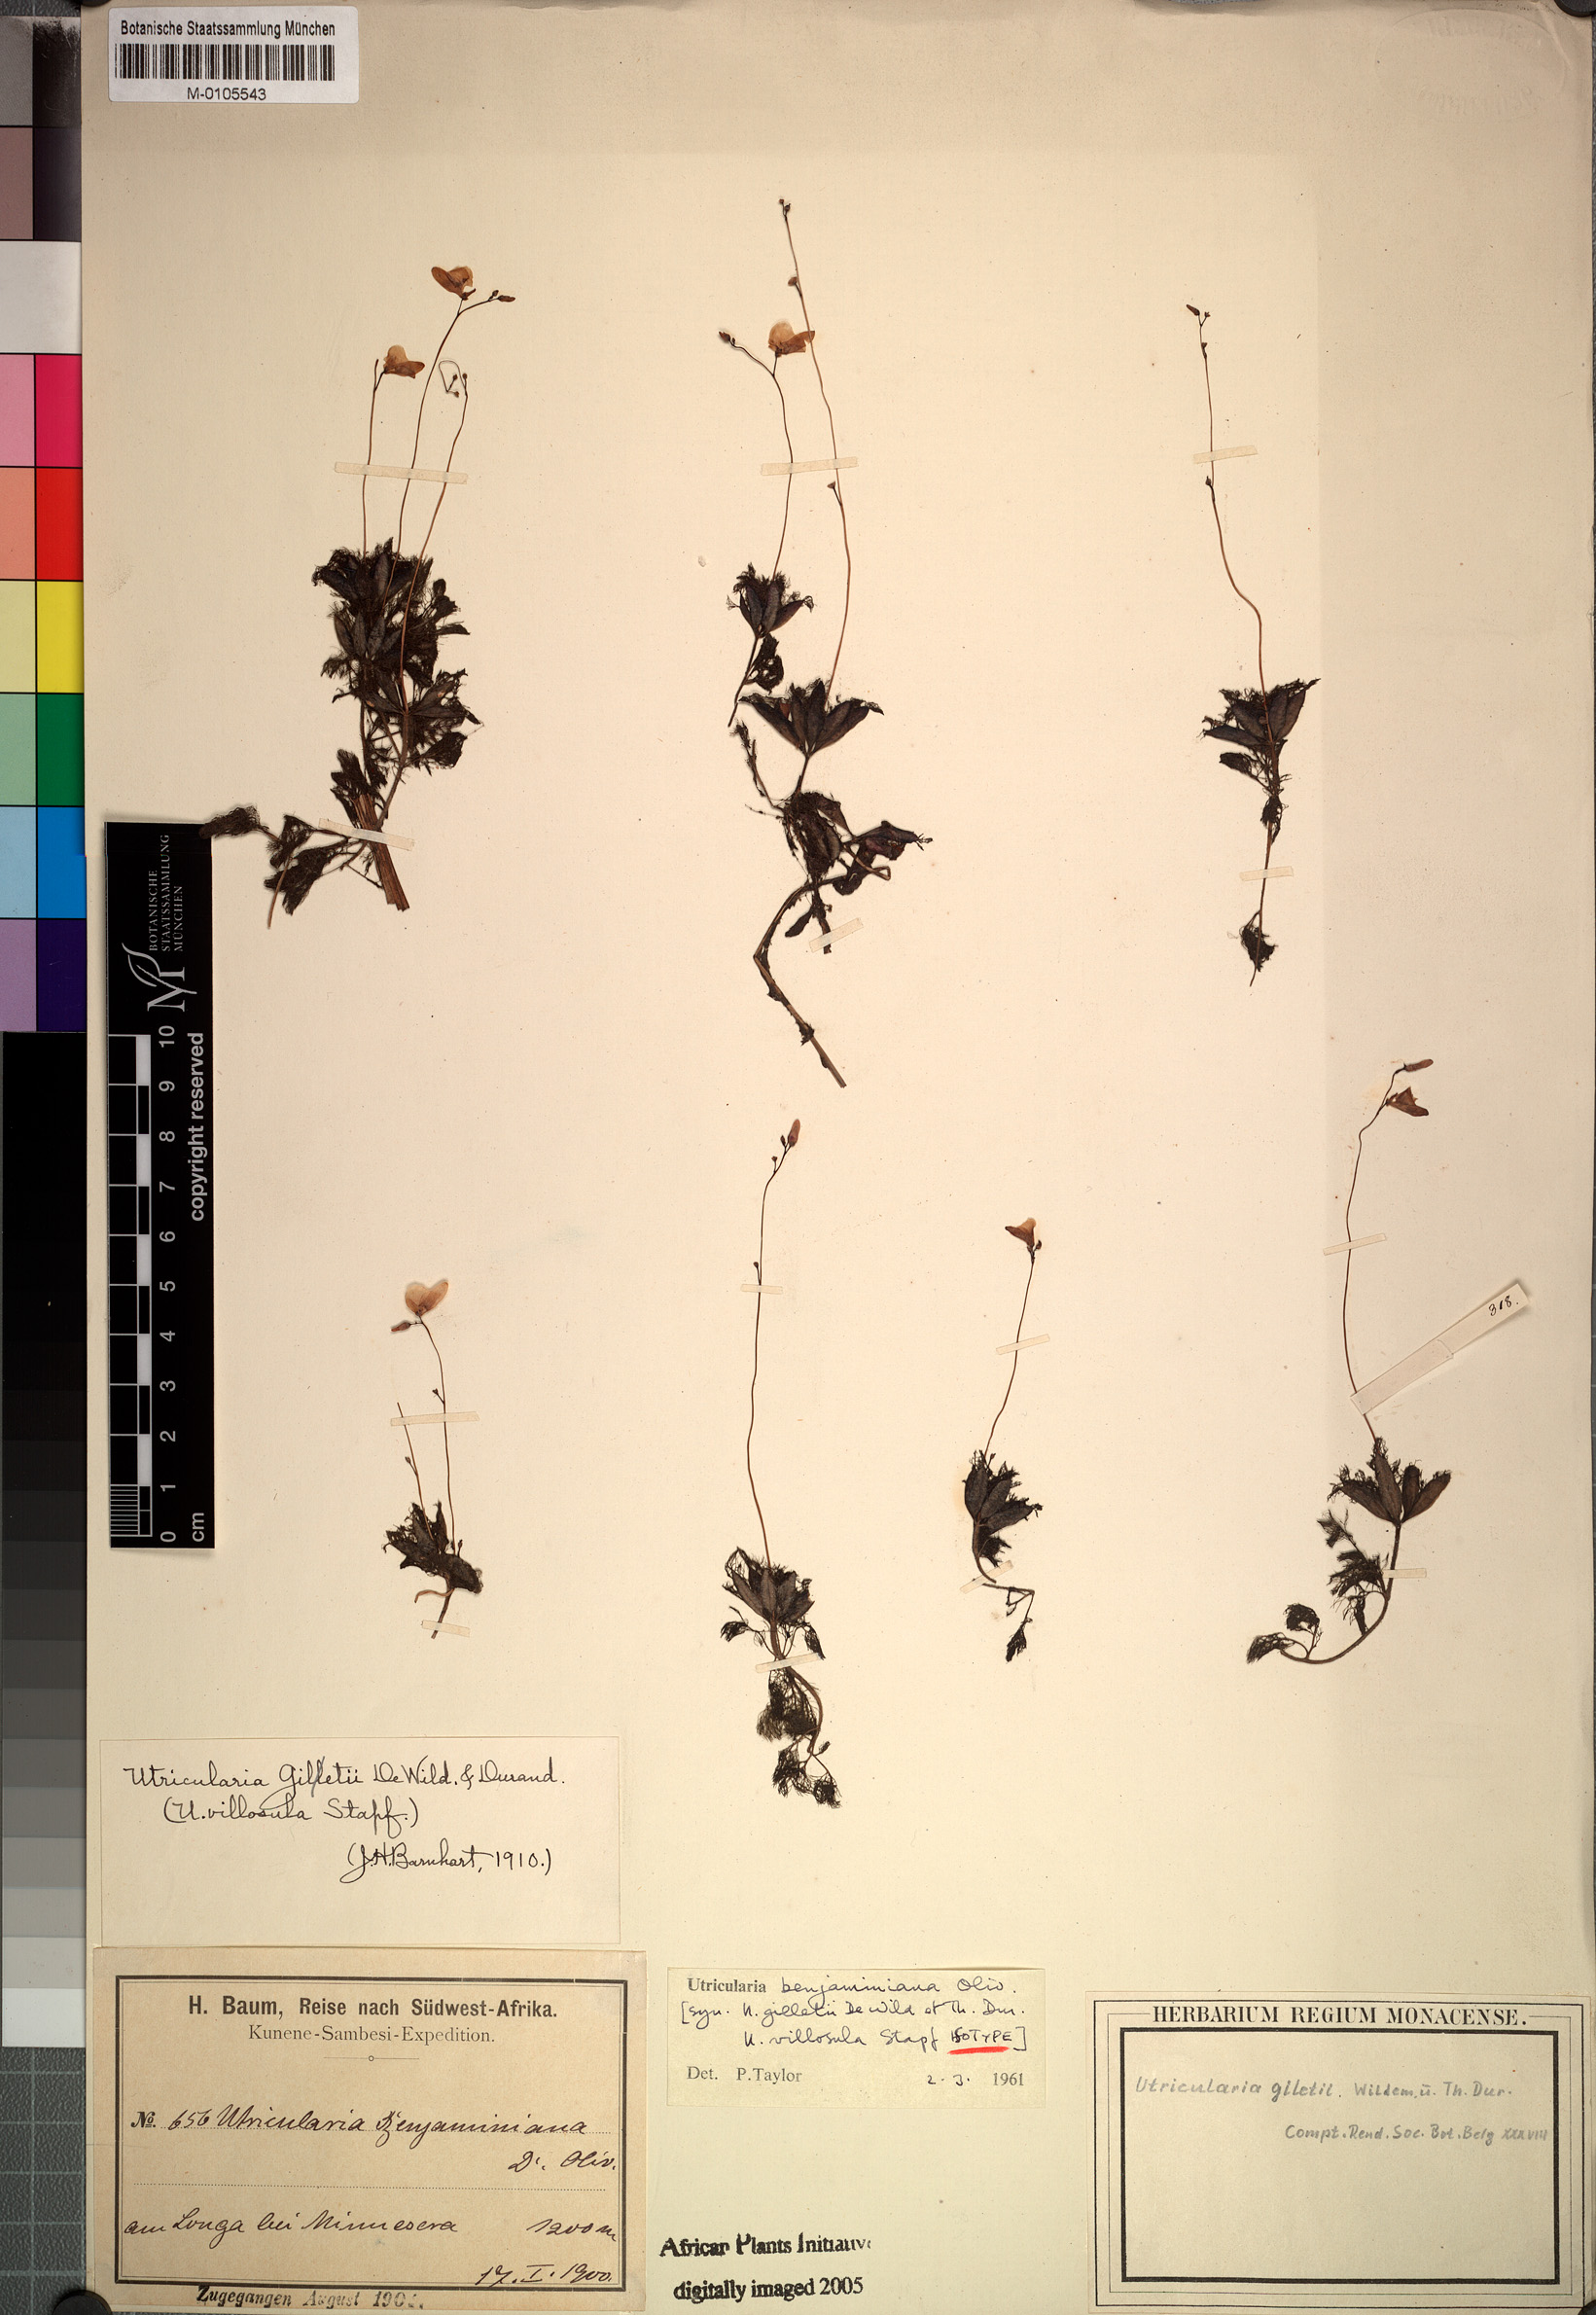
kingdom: Plantae
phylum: Tracheophyta
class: Magnoliopsida
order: Lamiales
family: Lentibulariaceae
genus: Utricularia
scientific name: Utricularia benjaminiana
